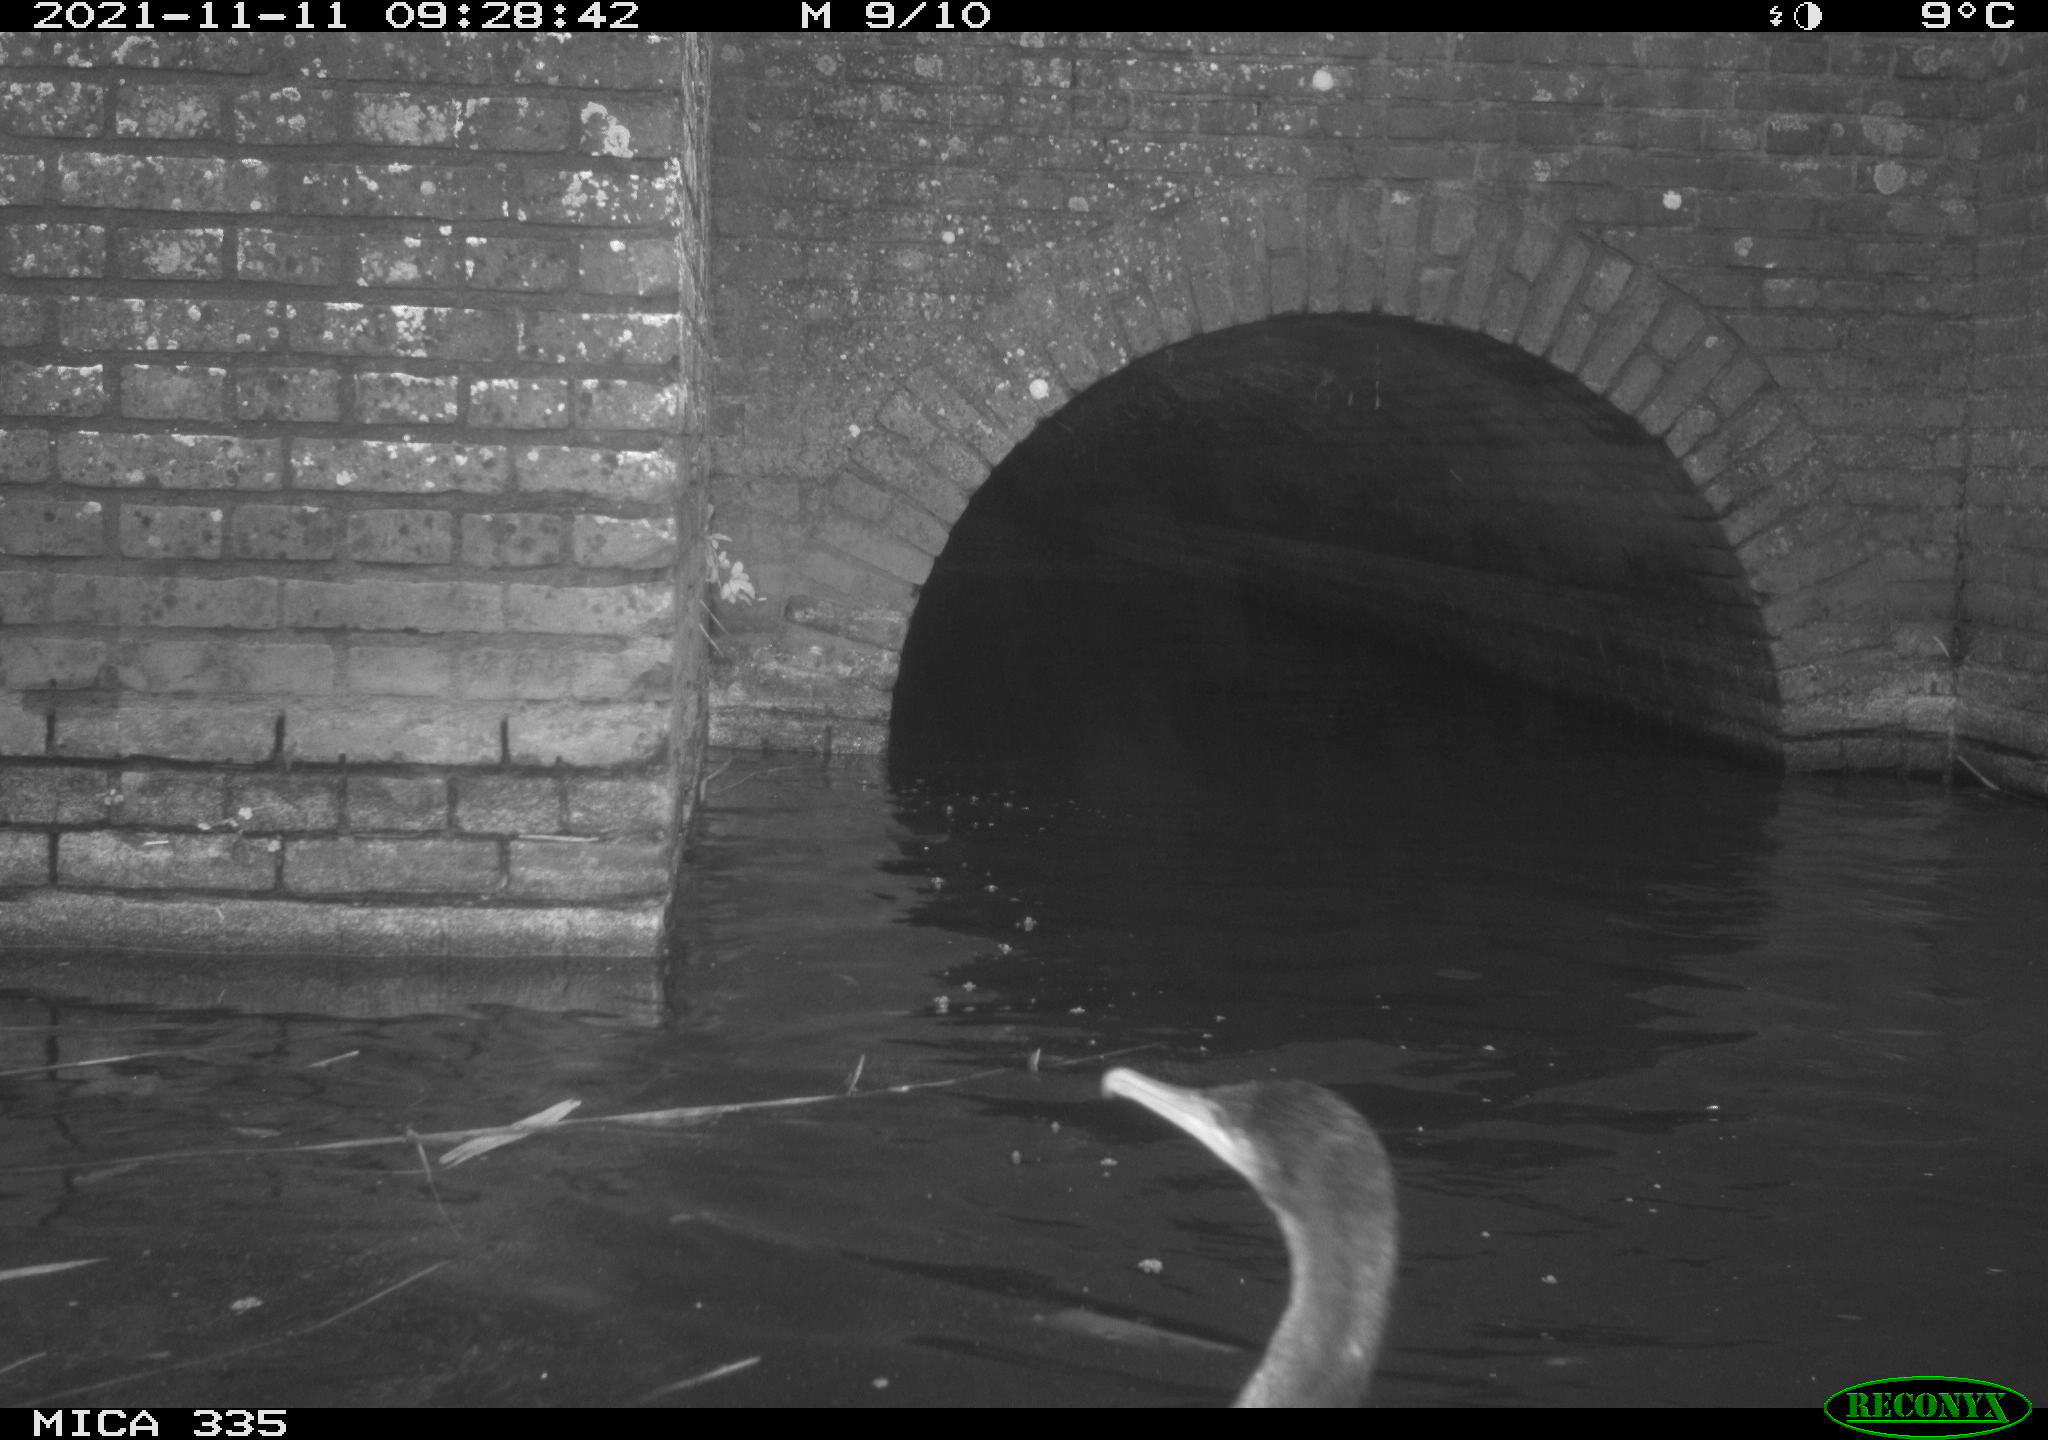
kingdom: Animalia
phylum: Chordata
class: Aves
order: Suliformes
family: Phalacrocoracidae
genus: Phalacrocorax
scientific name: Phalacrocorax carbo
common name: Great cormorant
